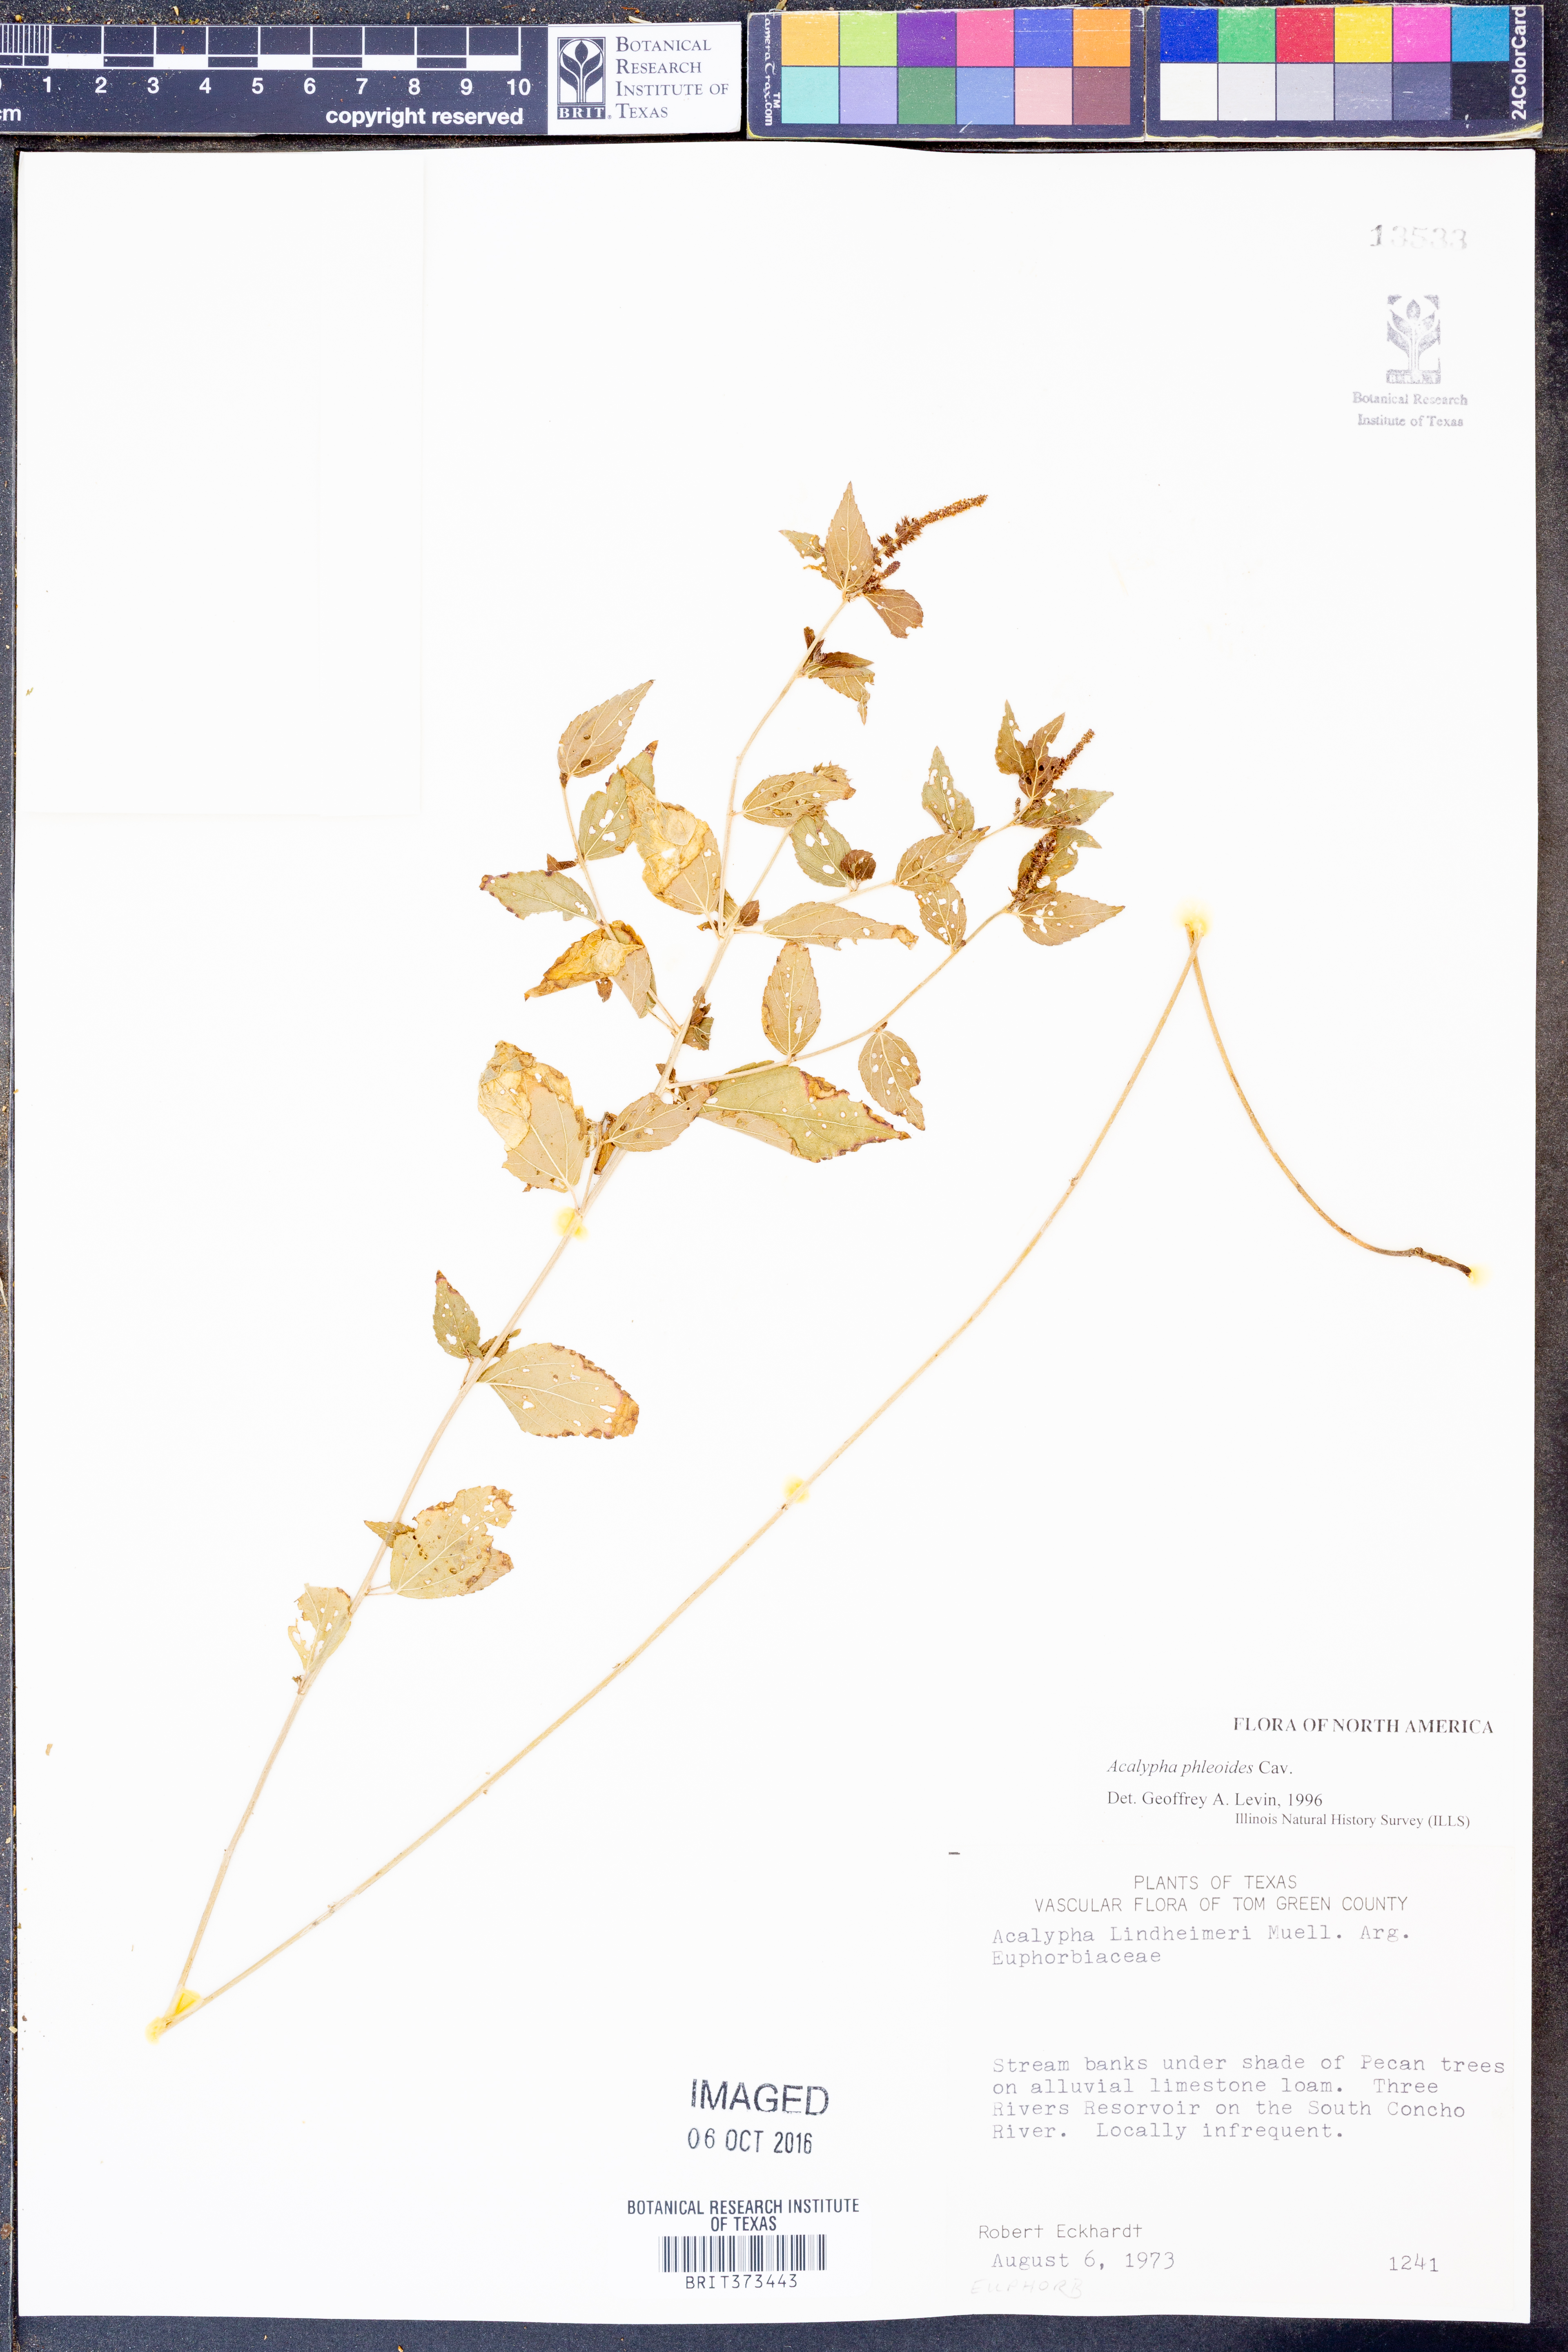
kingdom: Plantae
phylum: Tracheophyta
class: Magnoliopsida
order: Malpighiales
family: Euphorbiaceae
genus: Acalypha
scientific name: Acalypha phleoides
